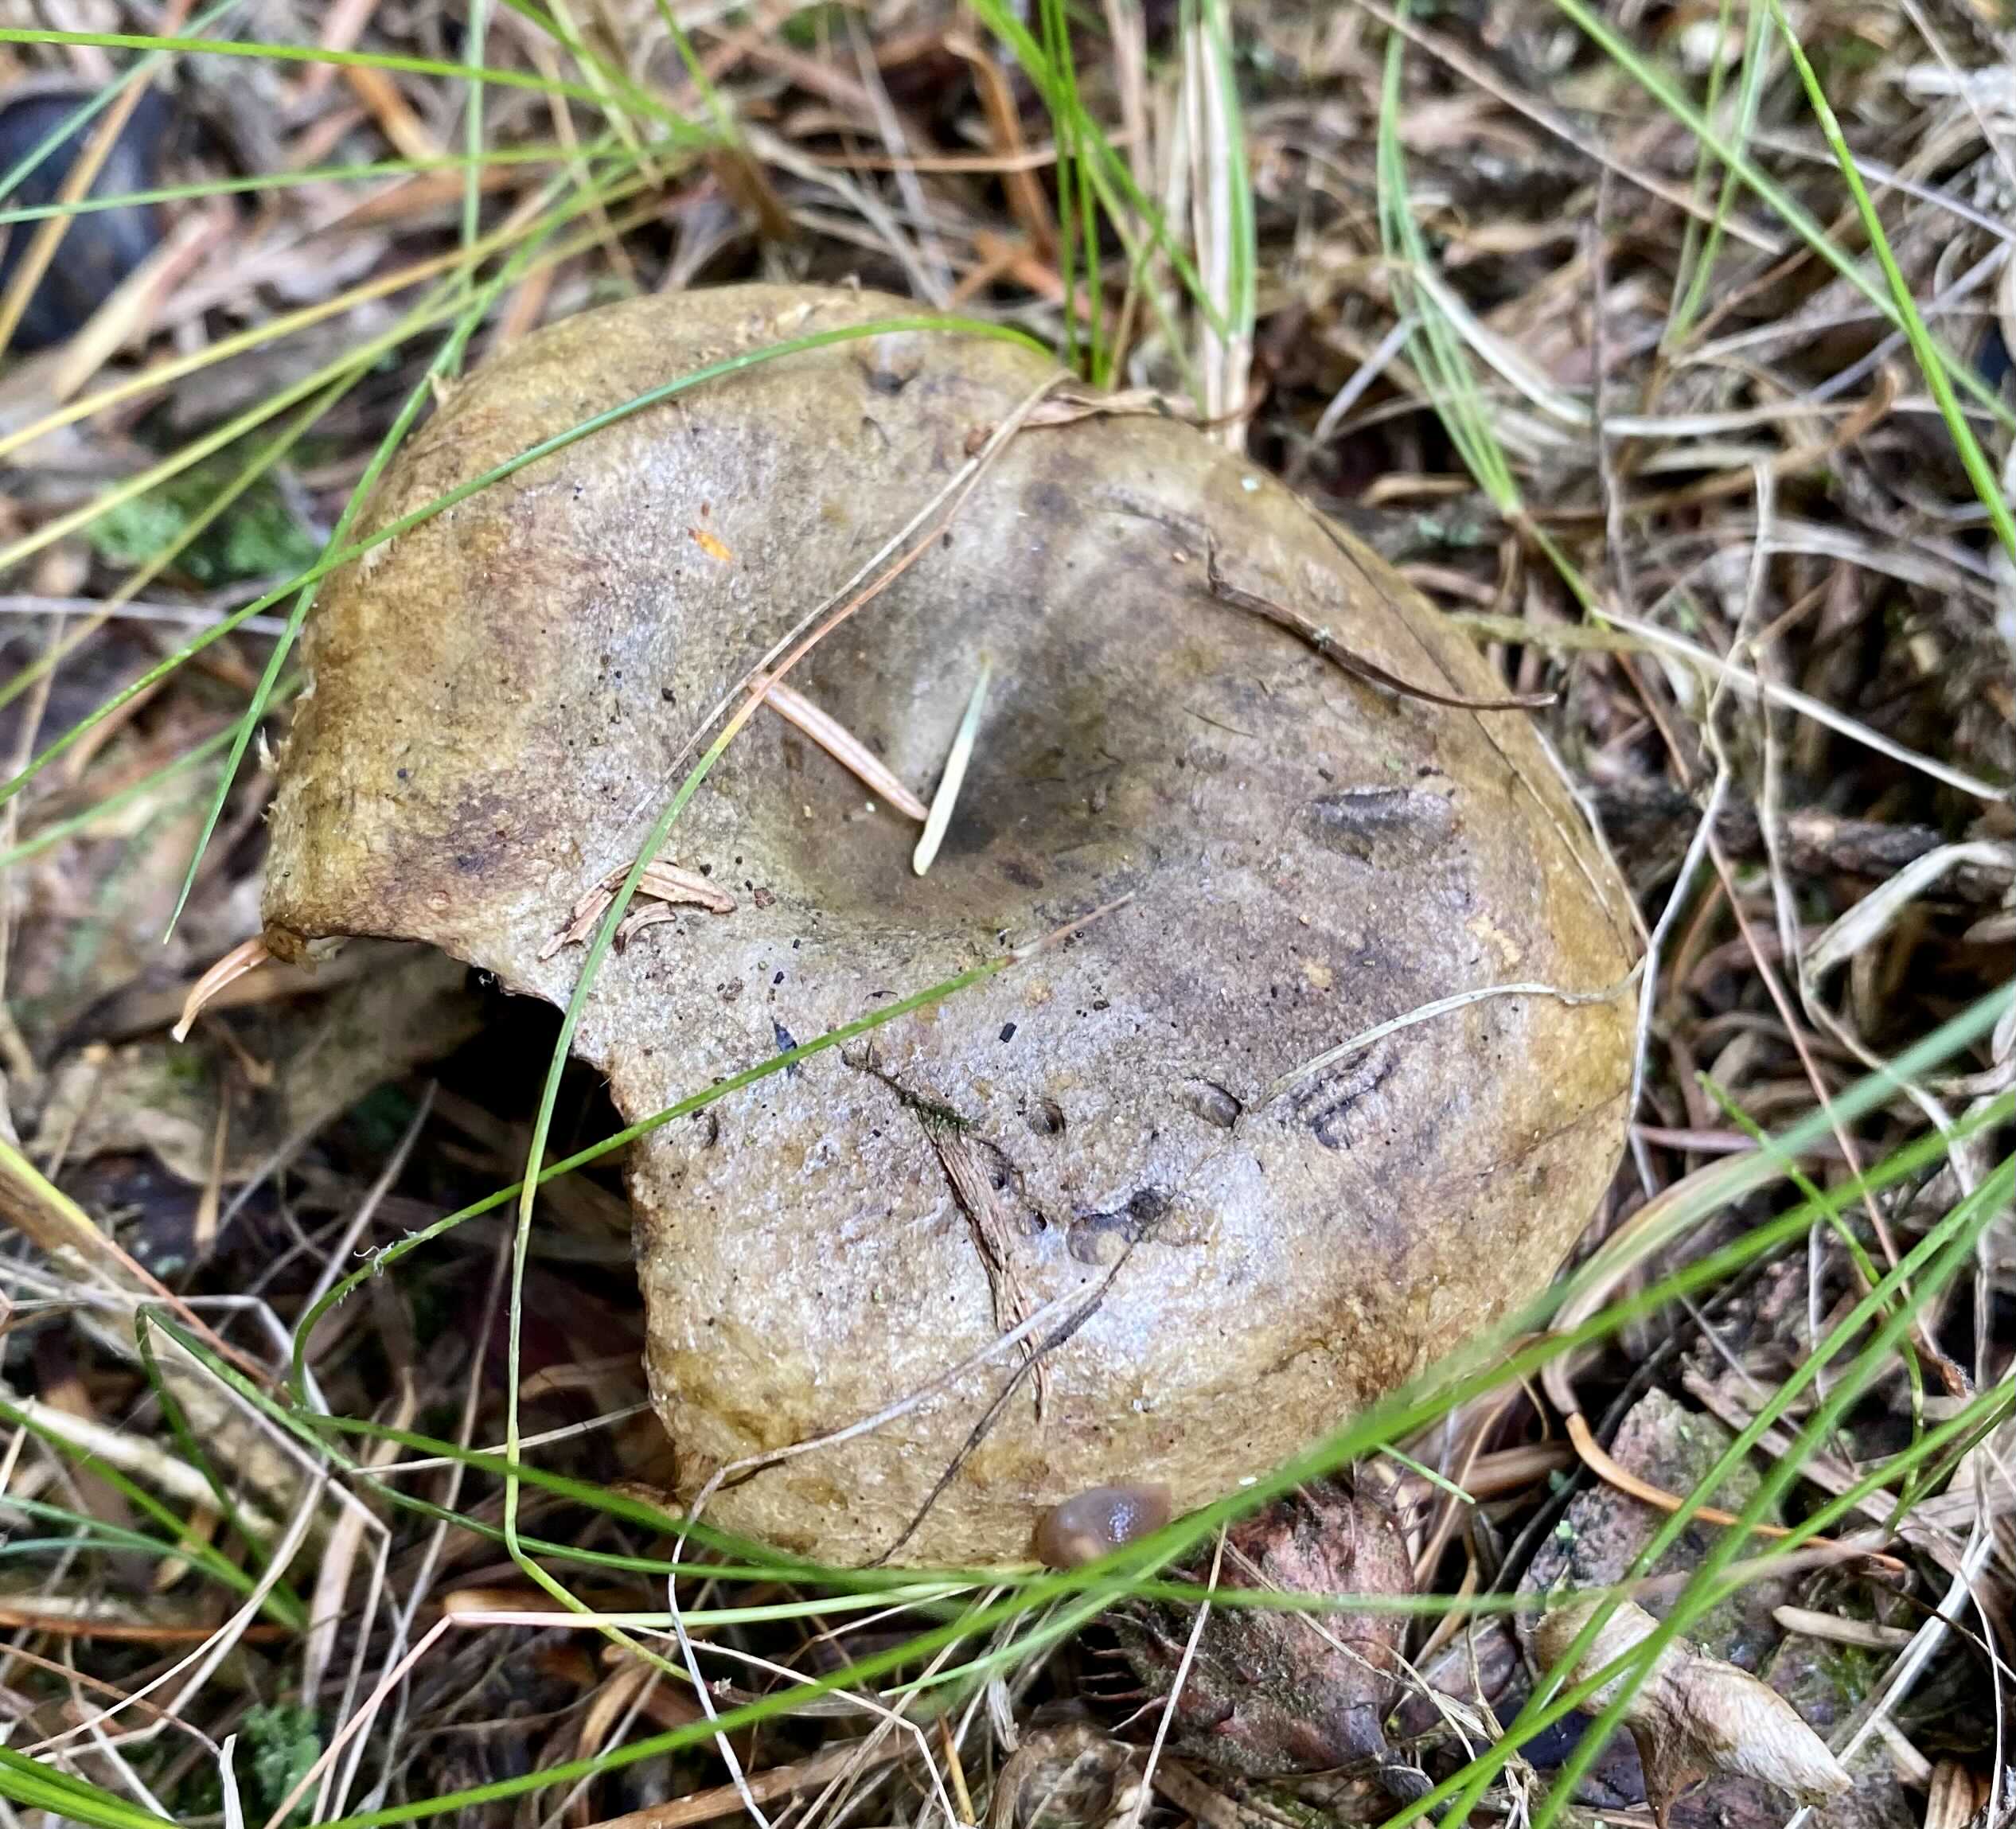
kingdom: Fungi
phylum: Basidiomycota
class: Agaricomycetes
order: Russulales
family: Russulaceae
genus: Lactarius
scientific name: Lactarius necator
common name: manddraber-mælkehat
